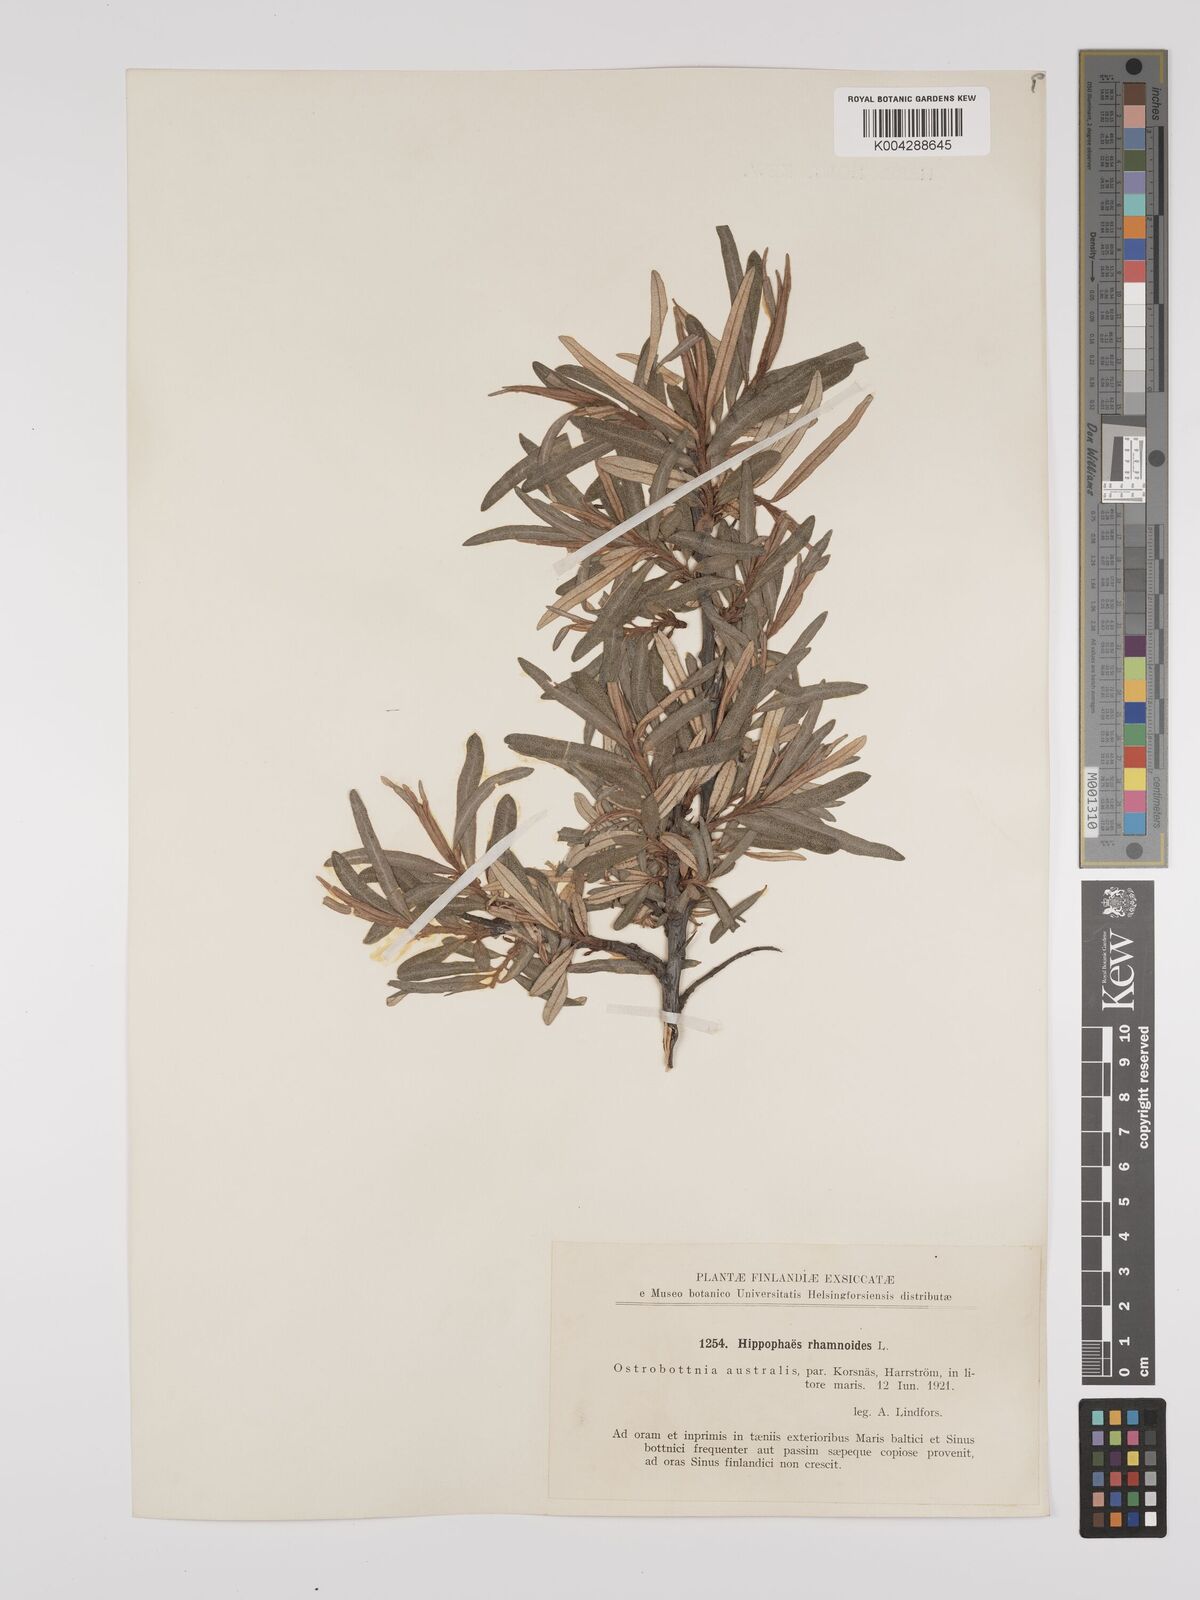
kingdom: Plantae
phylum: Tracheophyta
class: Magnoliopsida
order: Rosales
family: Elaeagnaceae
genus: Hippophae
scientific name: Hippophae rhamnoides
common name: Sea-buckthorn
